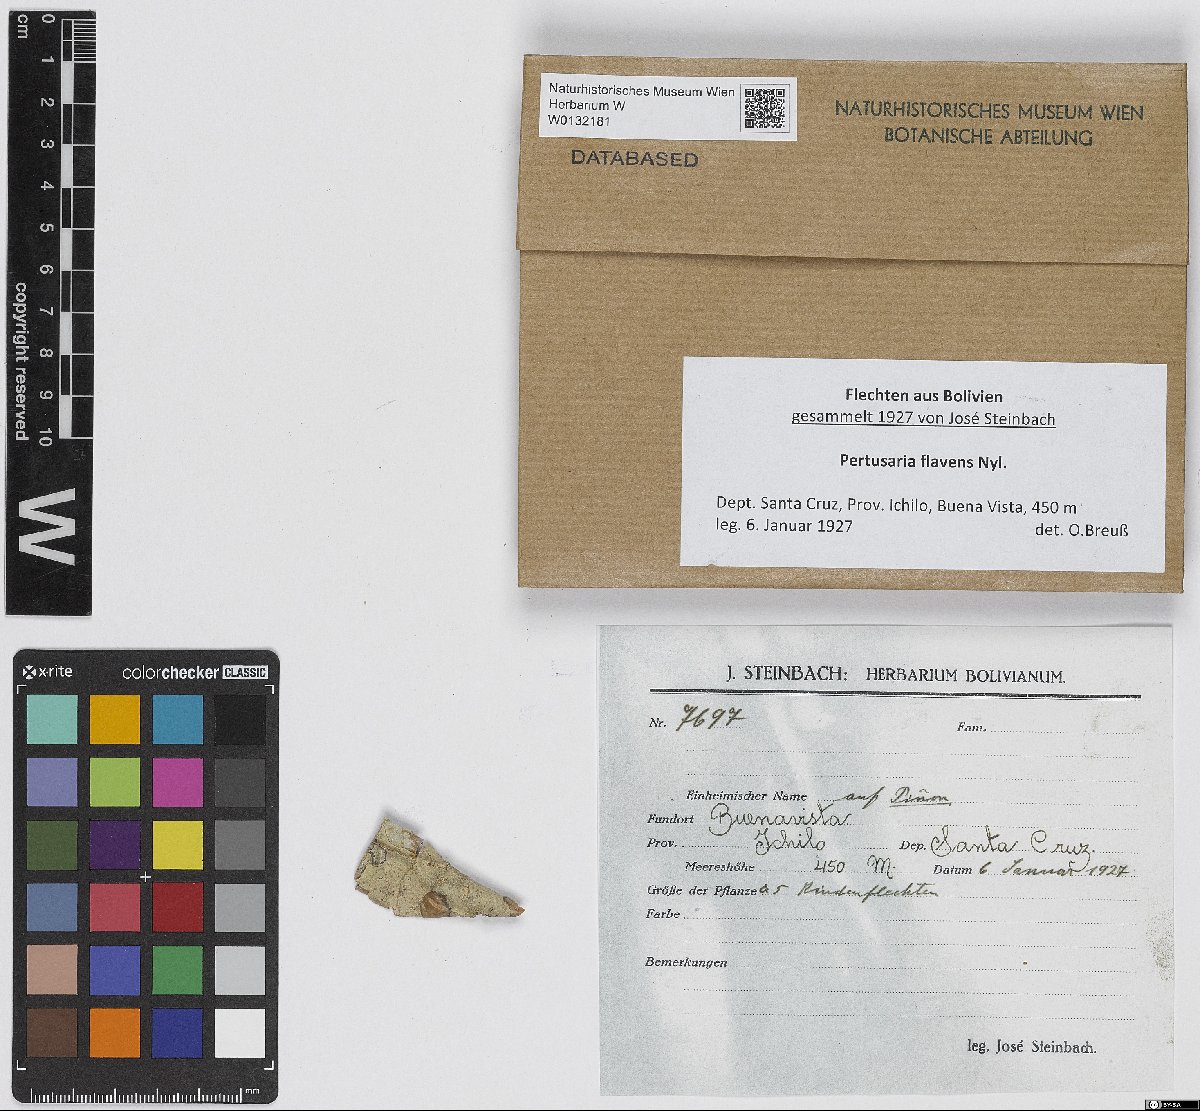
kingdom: Fungi
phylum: Ascomycota
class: Lecanoromycetes
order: Pertusariales
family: Pertusariaceae
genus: Pertusaria
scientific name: Pertusaria flavens
